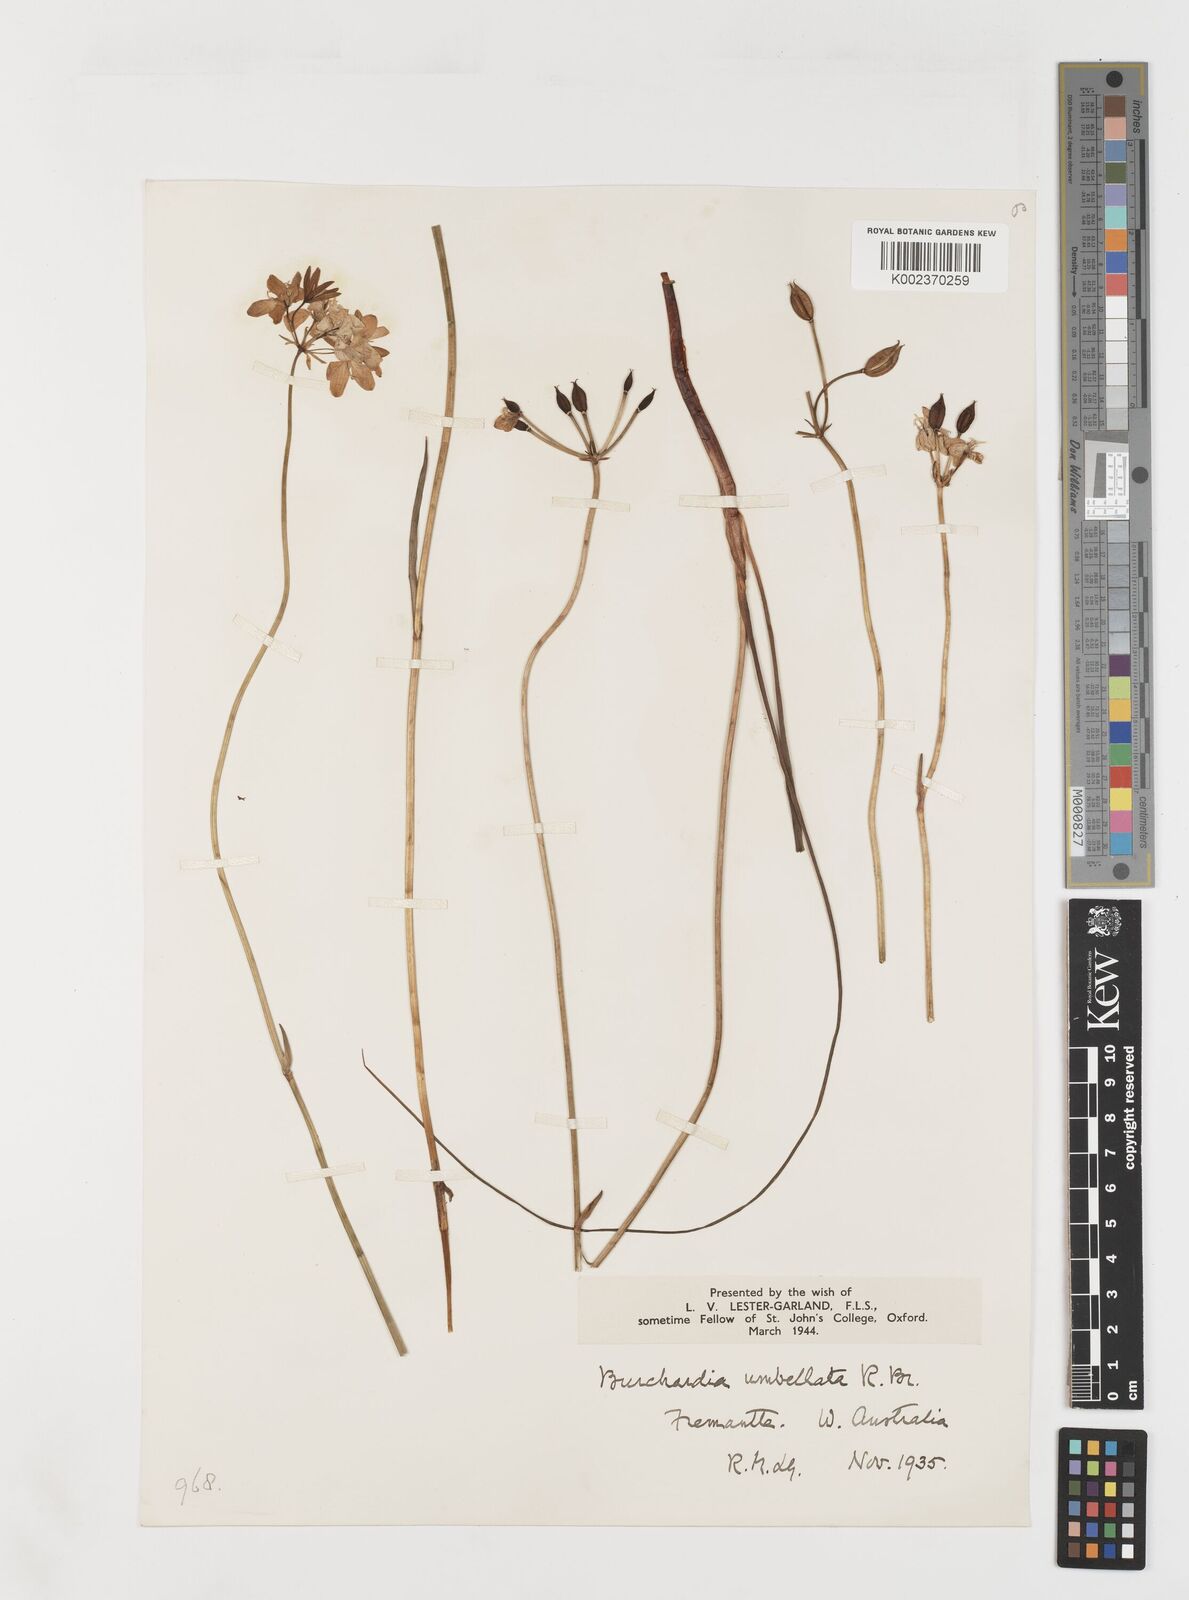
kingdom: Plantae
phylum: Tracheophyta
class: Liliopsida
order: Liliales
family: Colchicaceae
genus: Burchardia
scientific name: Burchardia umbellata
